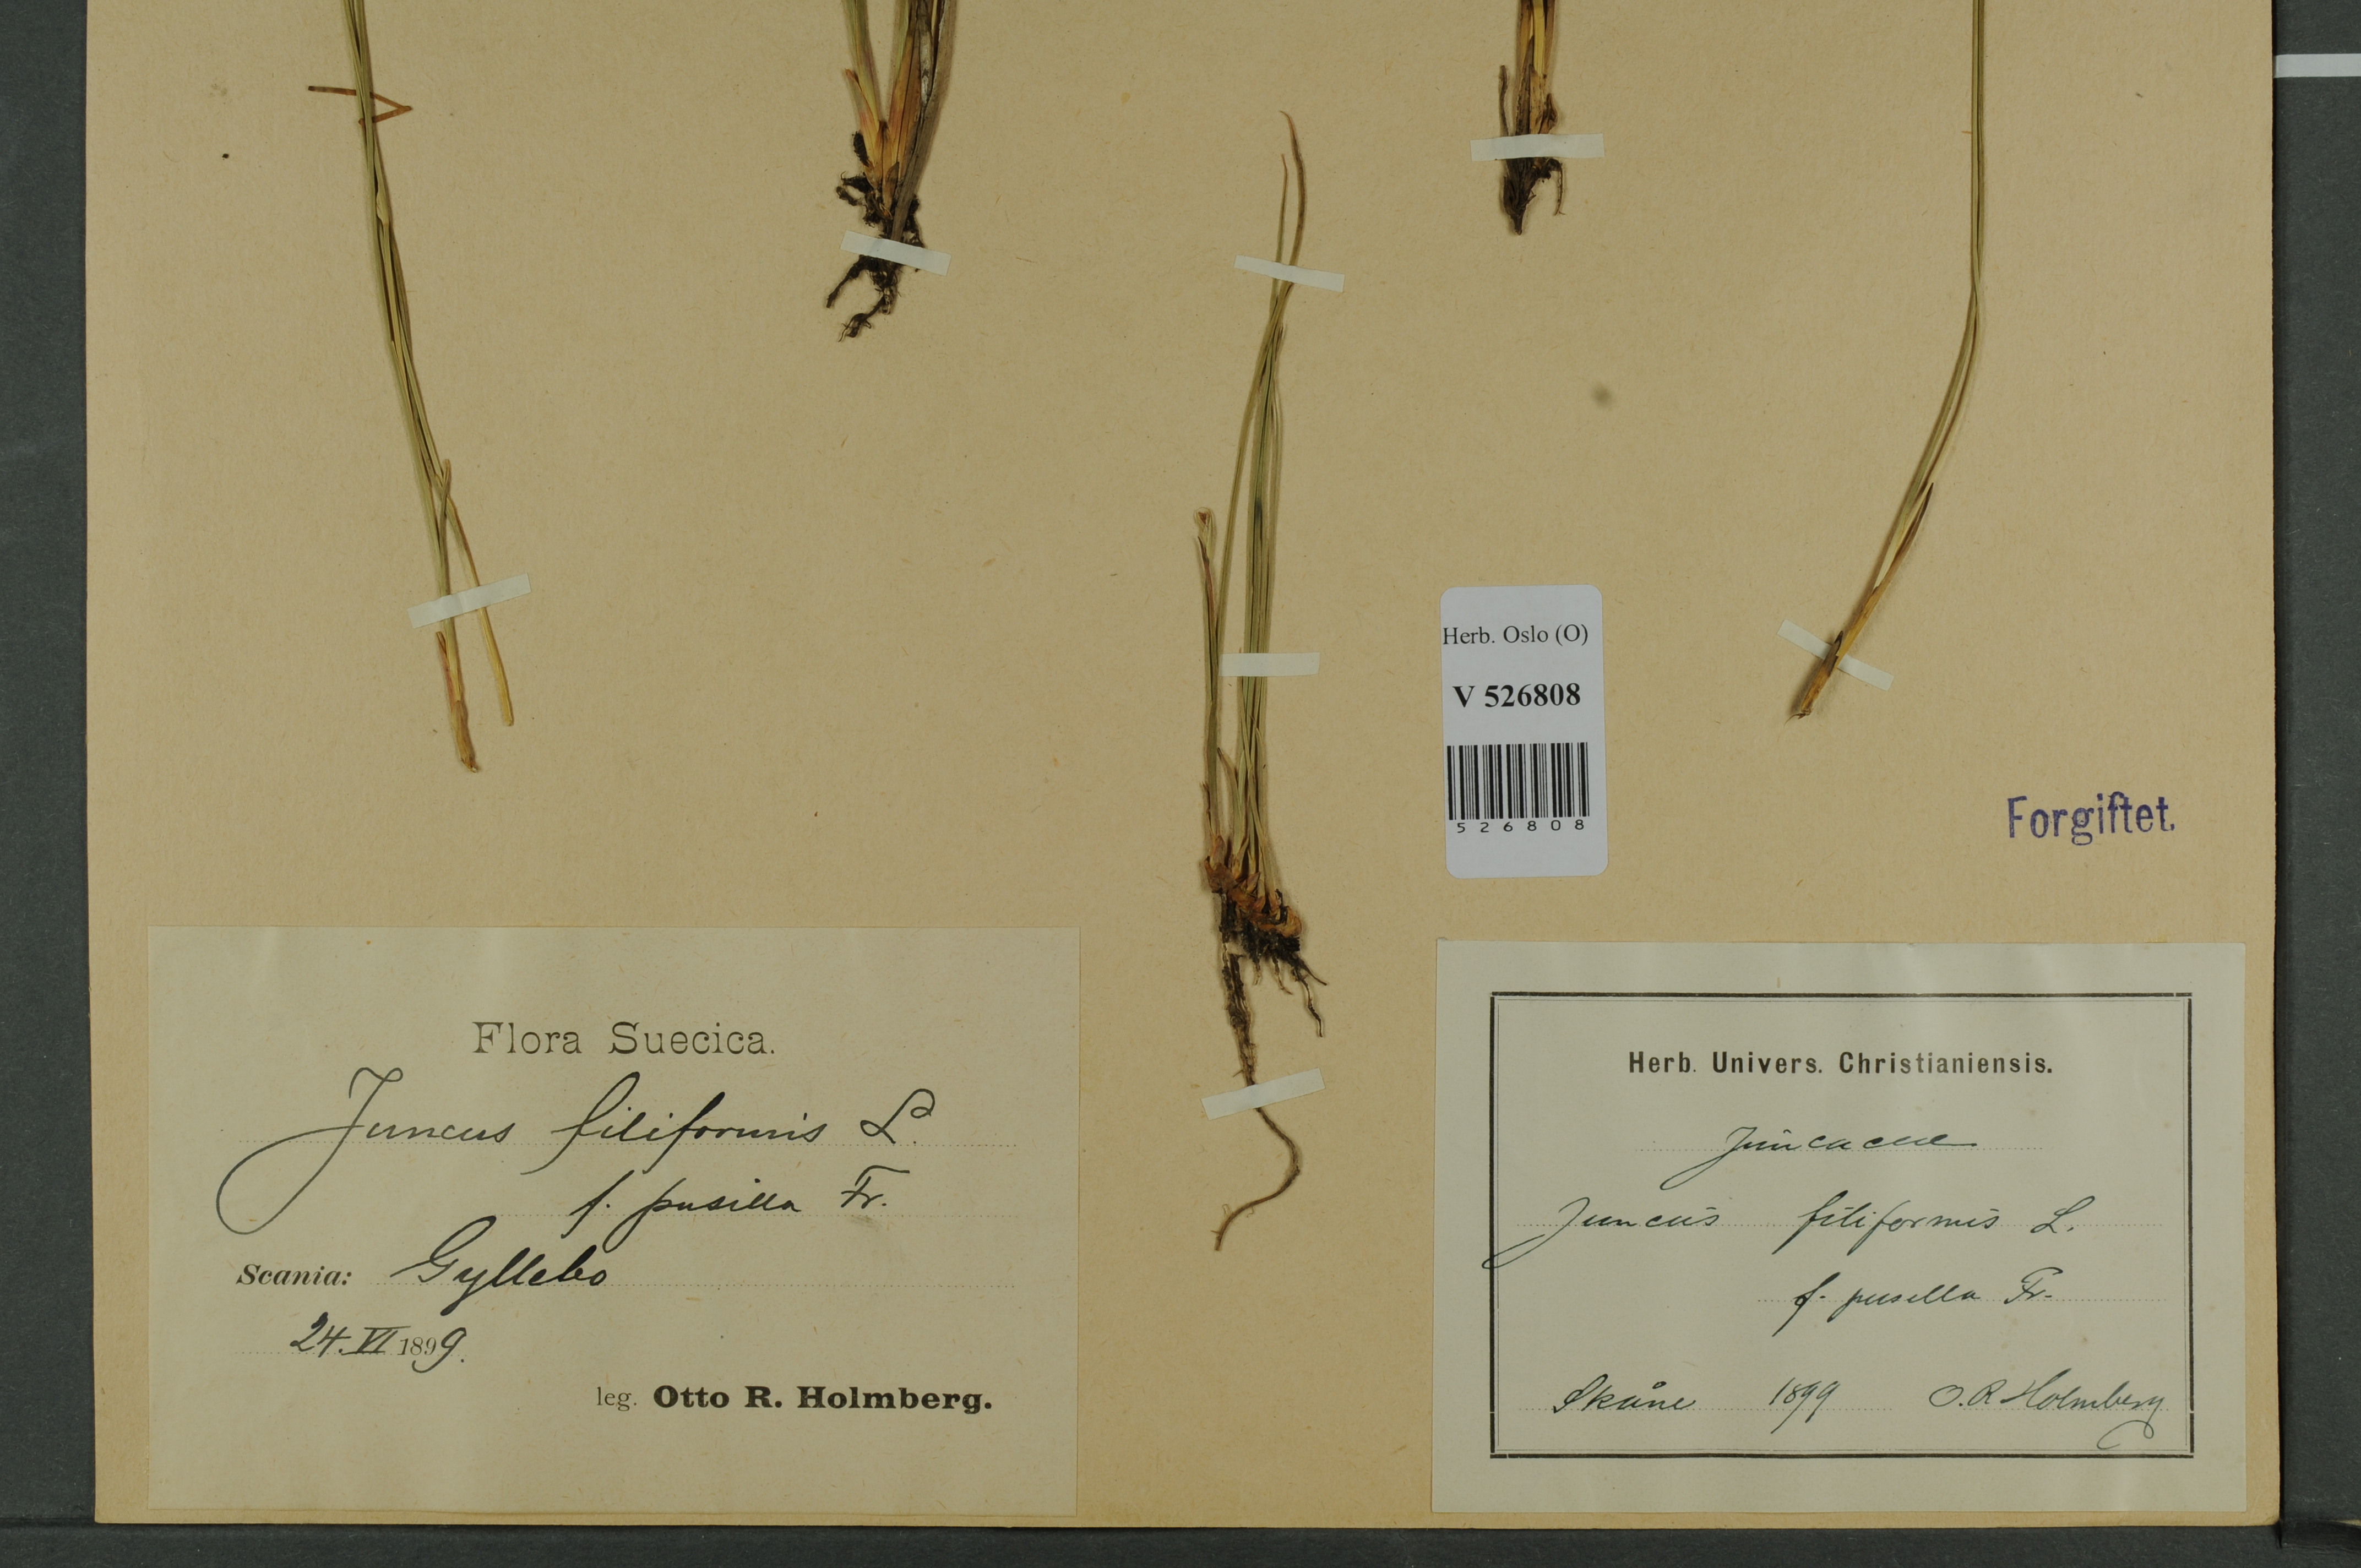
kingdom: Plantae
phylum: Tracheophyta
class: Liliopsida
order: Poales
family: Juncaceae
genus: Juncus
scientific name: Juncus filiformis
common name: Thread rush
